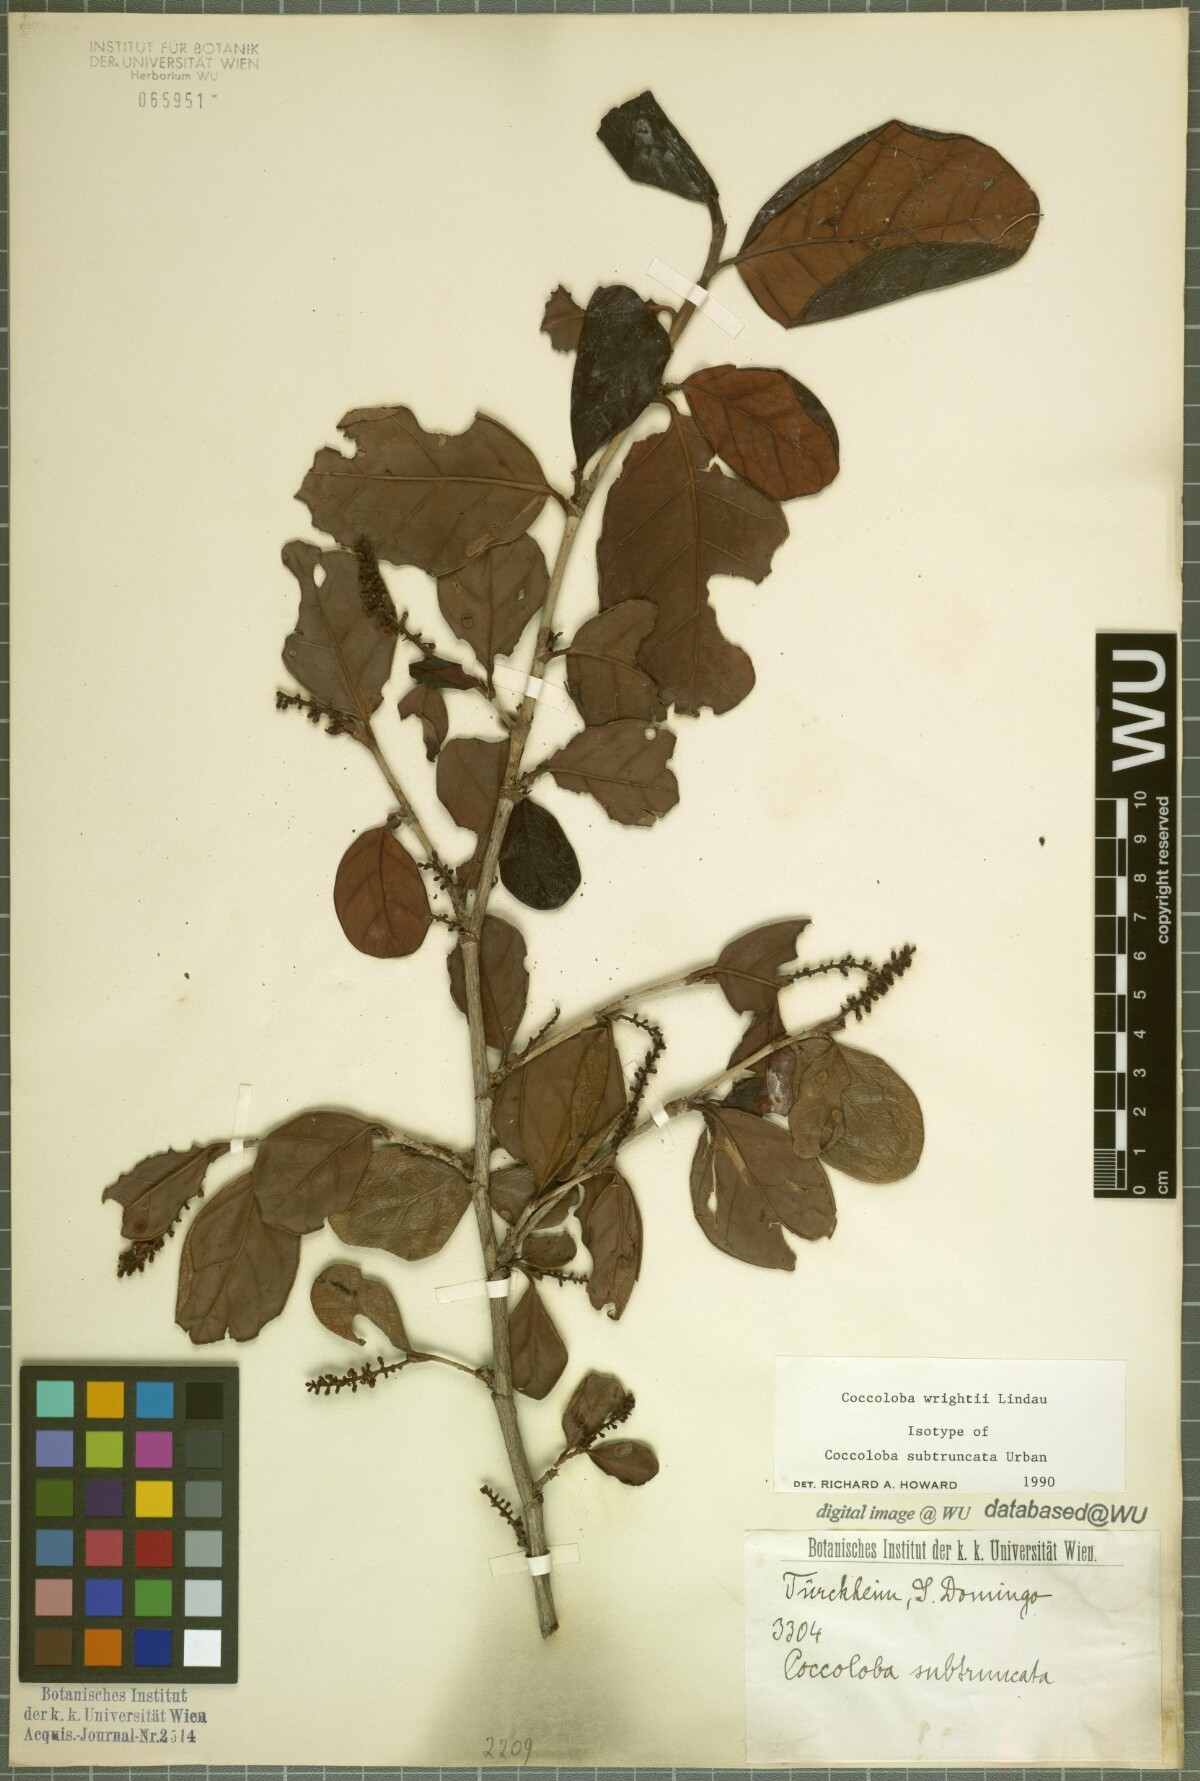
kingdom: Plantae
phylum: Tracheophyta
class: Magnoliopsida
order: Caryophyllales
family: Polygonaceae
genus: Coccoloba
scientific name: Coccoloba wrightii
